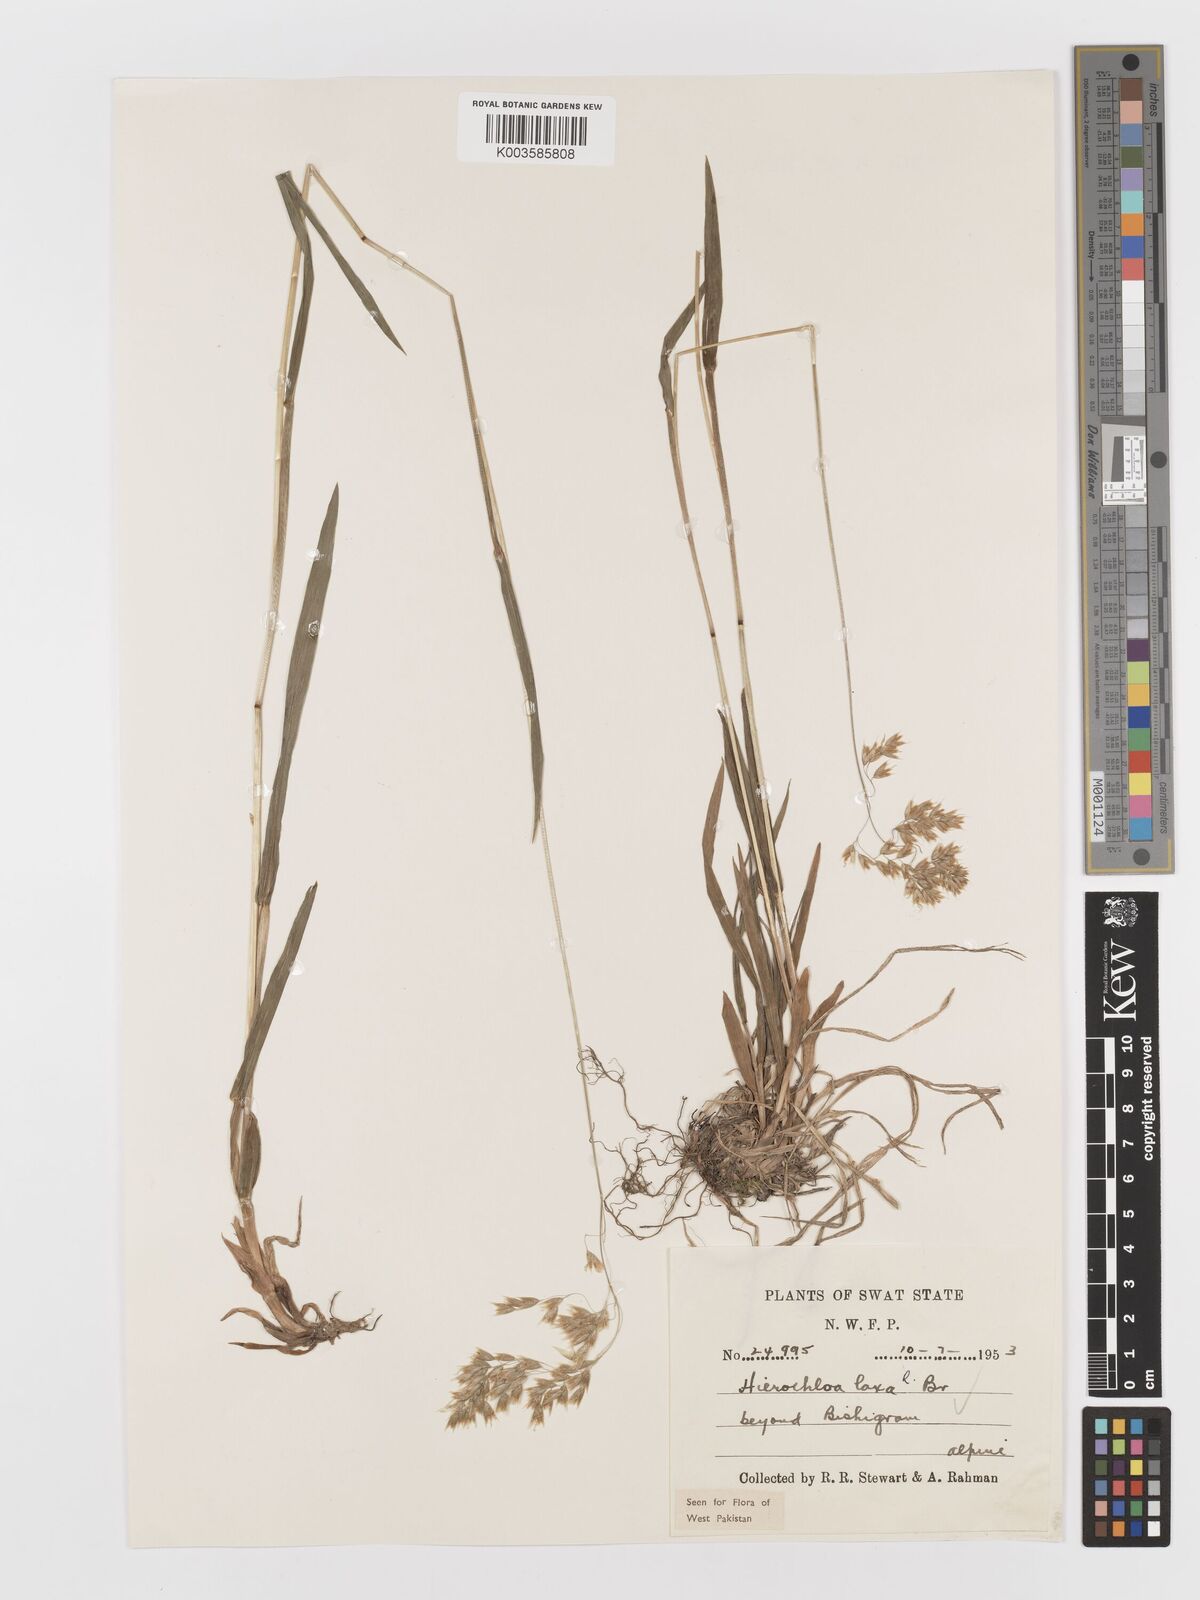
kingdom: Plantae
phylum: Tracheophyta
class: Liliopsida
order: Poales
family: Poaceae
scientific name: Poaceae
